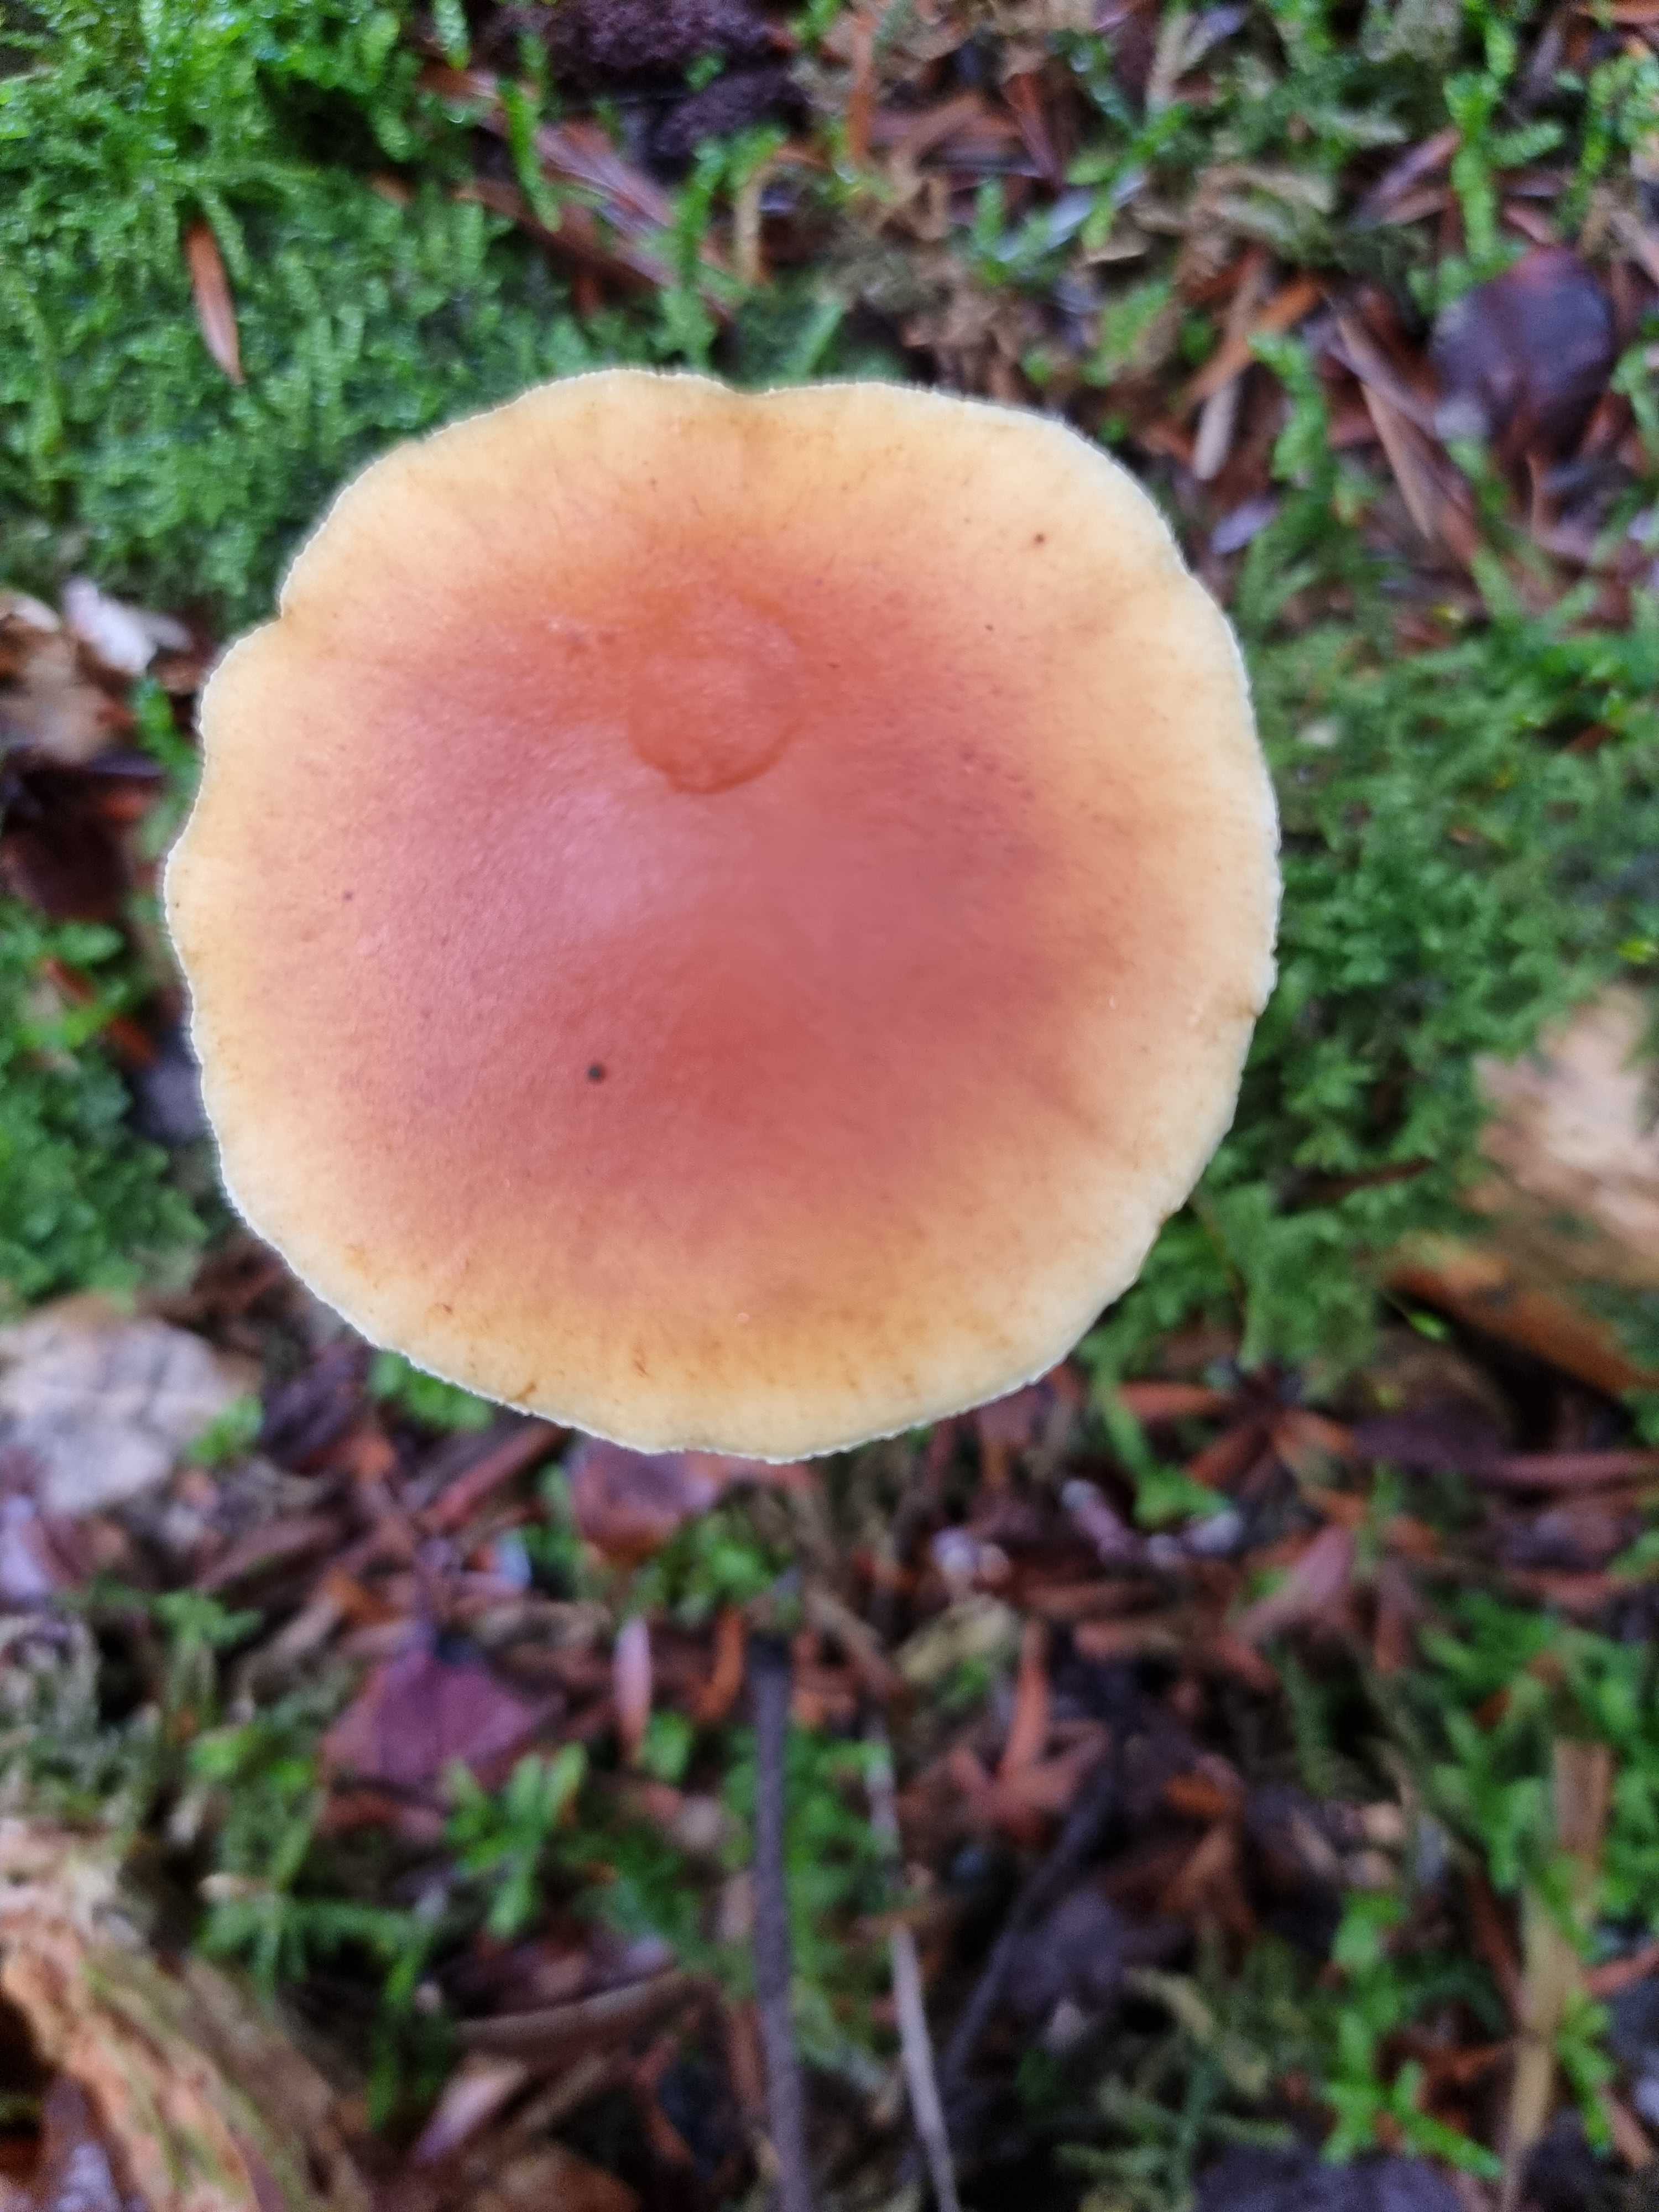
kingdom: Fungi
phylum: Basidiomycota
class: Agaricomycetes
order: Agaricales
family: Hymenogastraceae
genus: Gymnopilus
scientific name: Gymnopilus penetrans
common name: plettet flammehat
